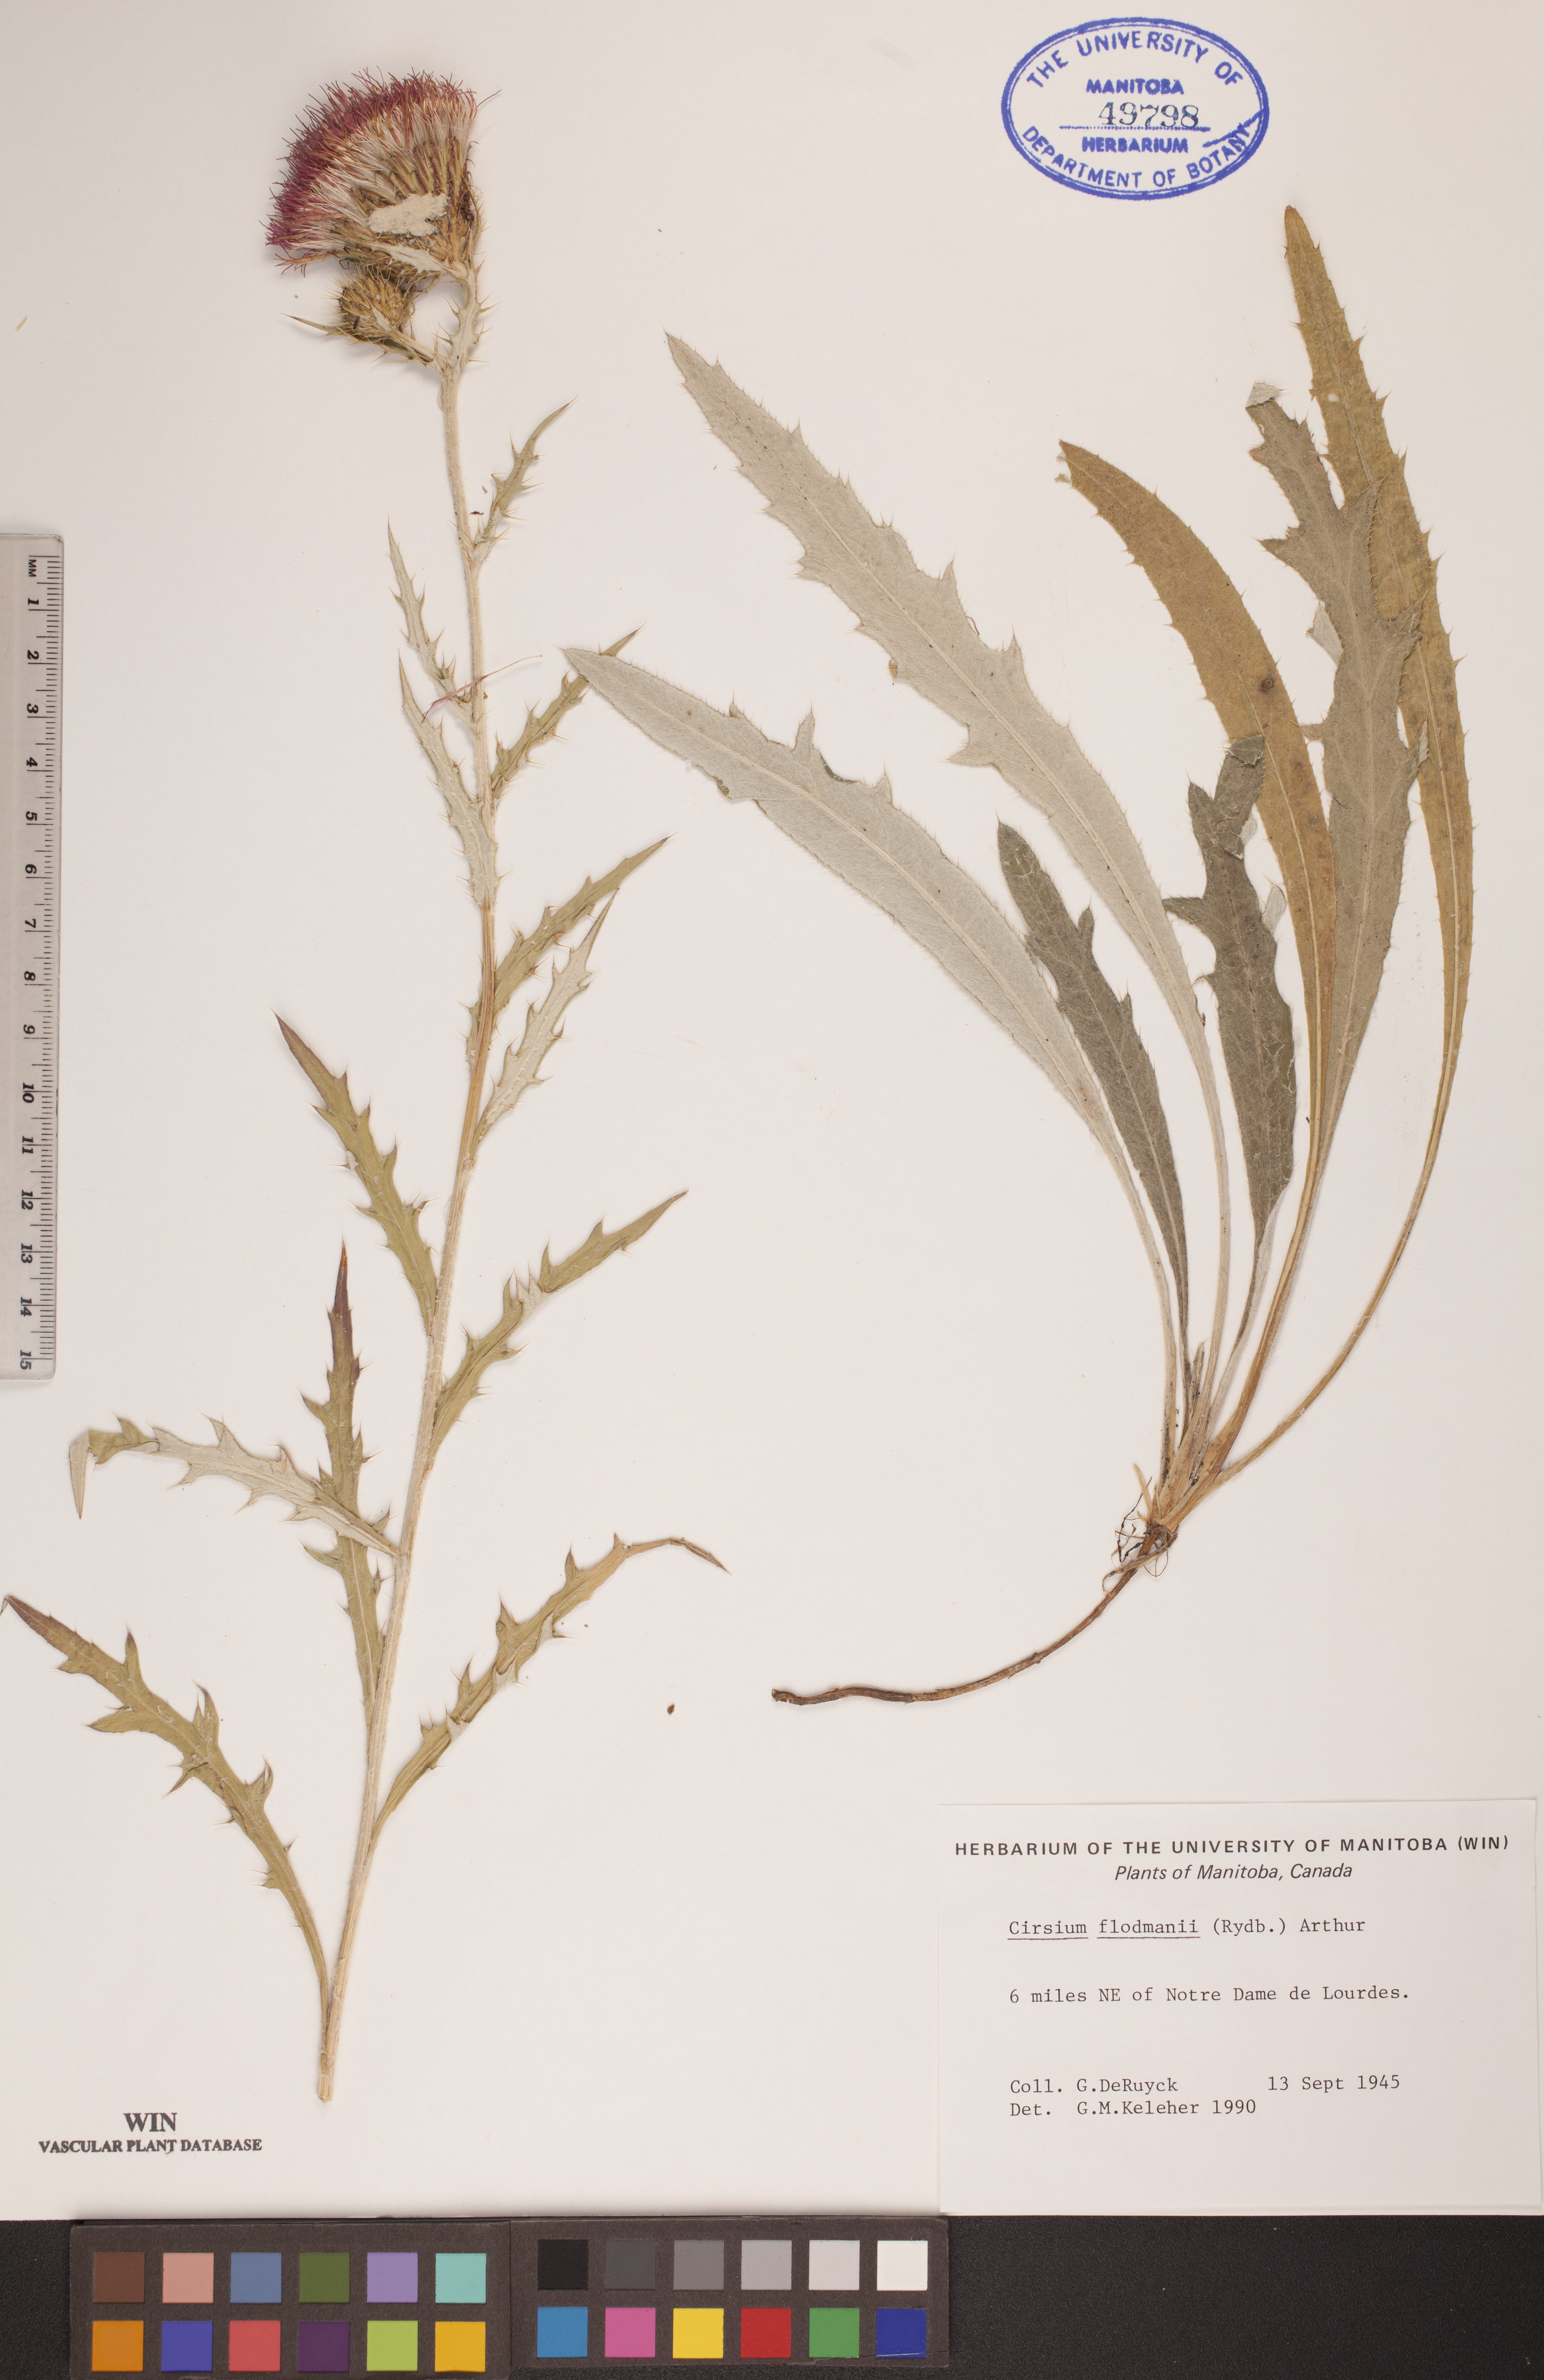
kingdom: Plantae
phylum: Tracheophyta
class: Magnoliopsida
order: Asterales
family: Asteraceae
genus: Cirsium
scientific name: Cirsium flodmanii
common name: Flodman's thistle
